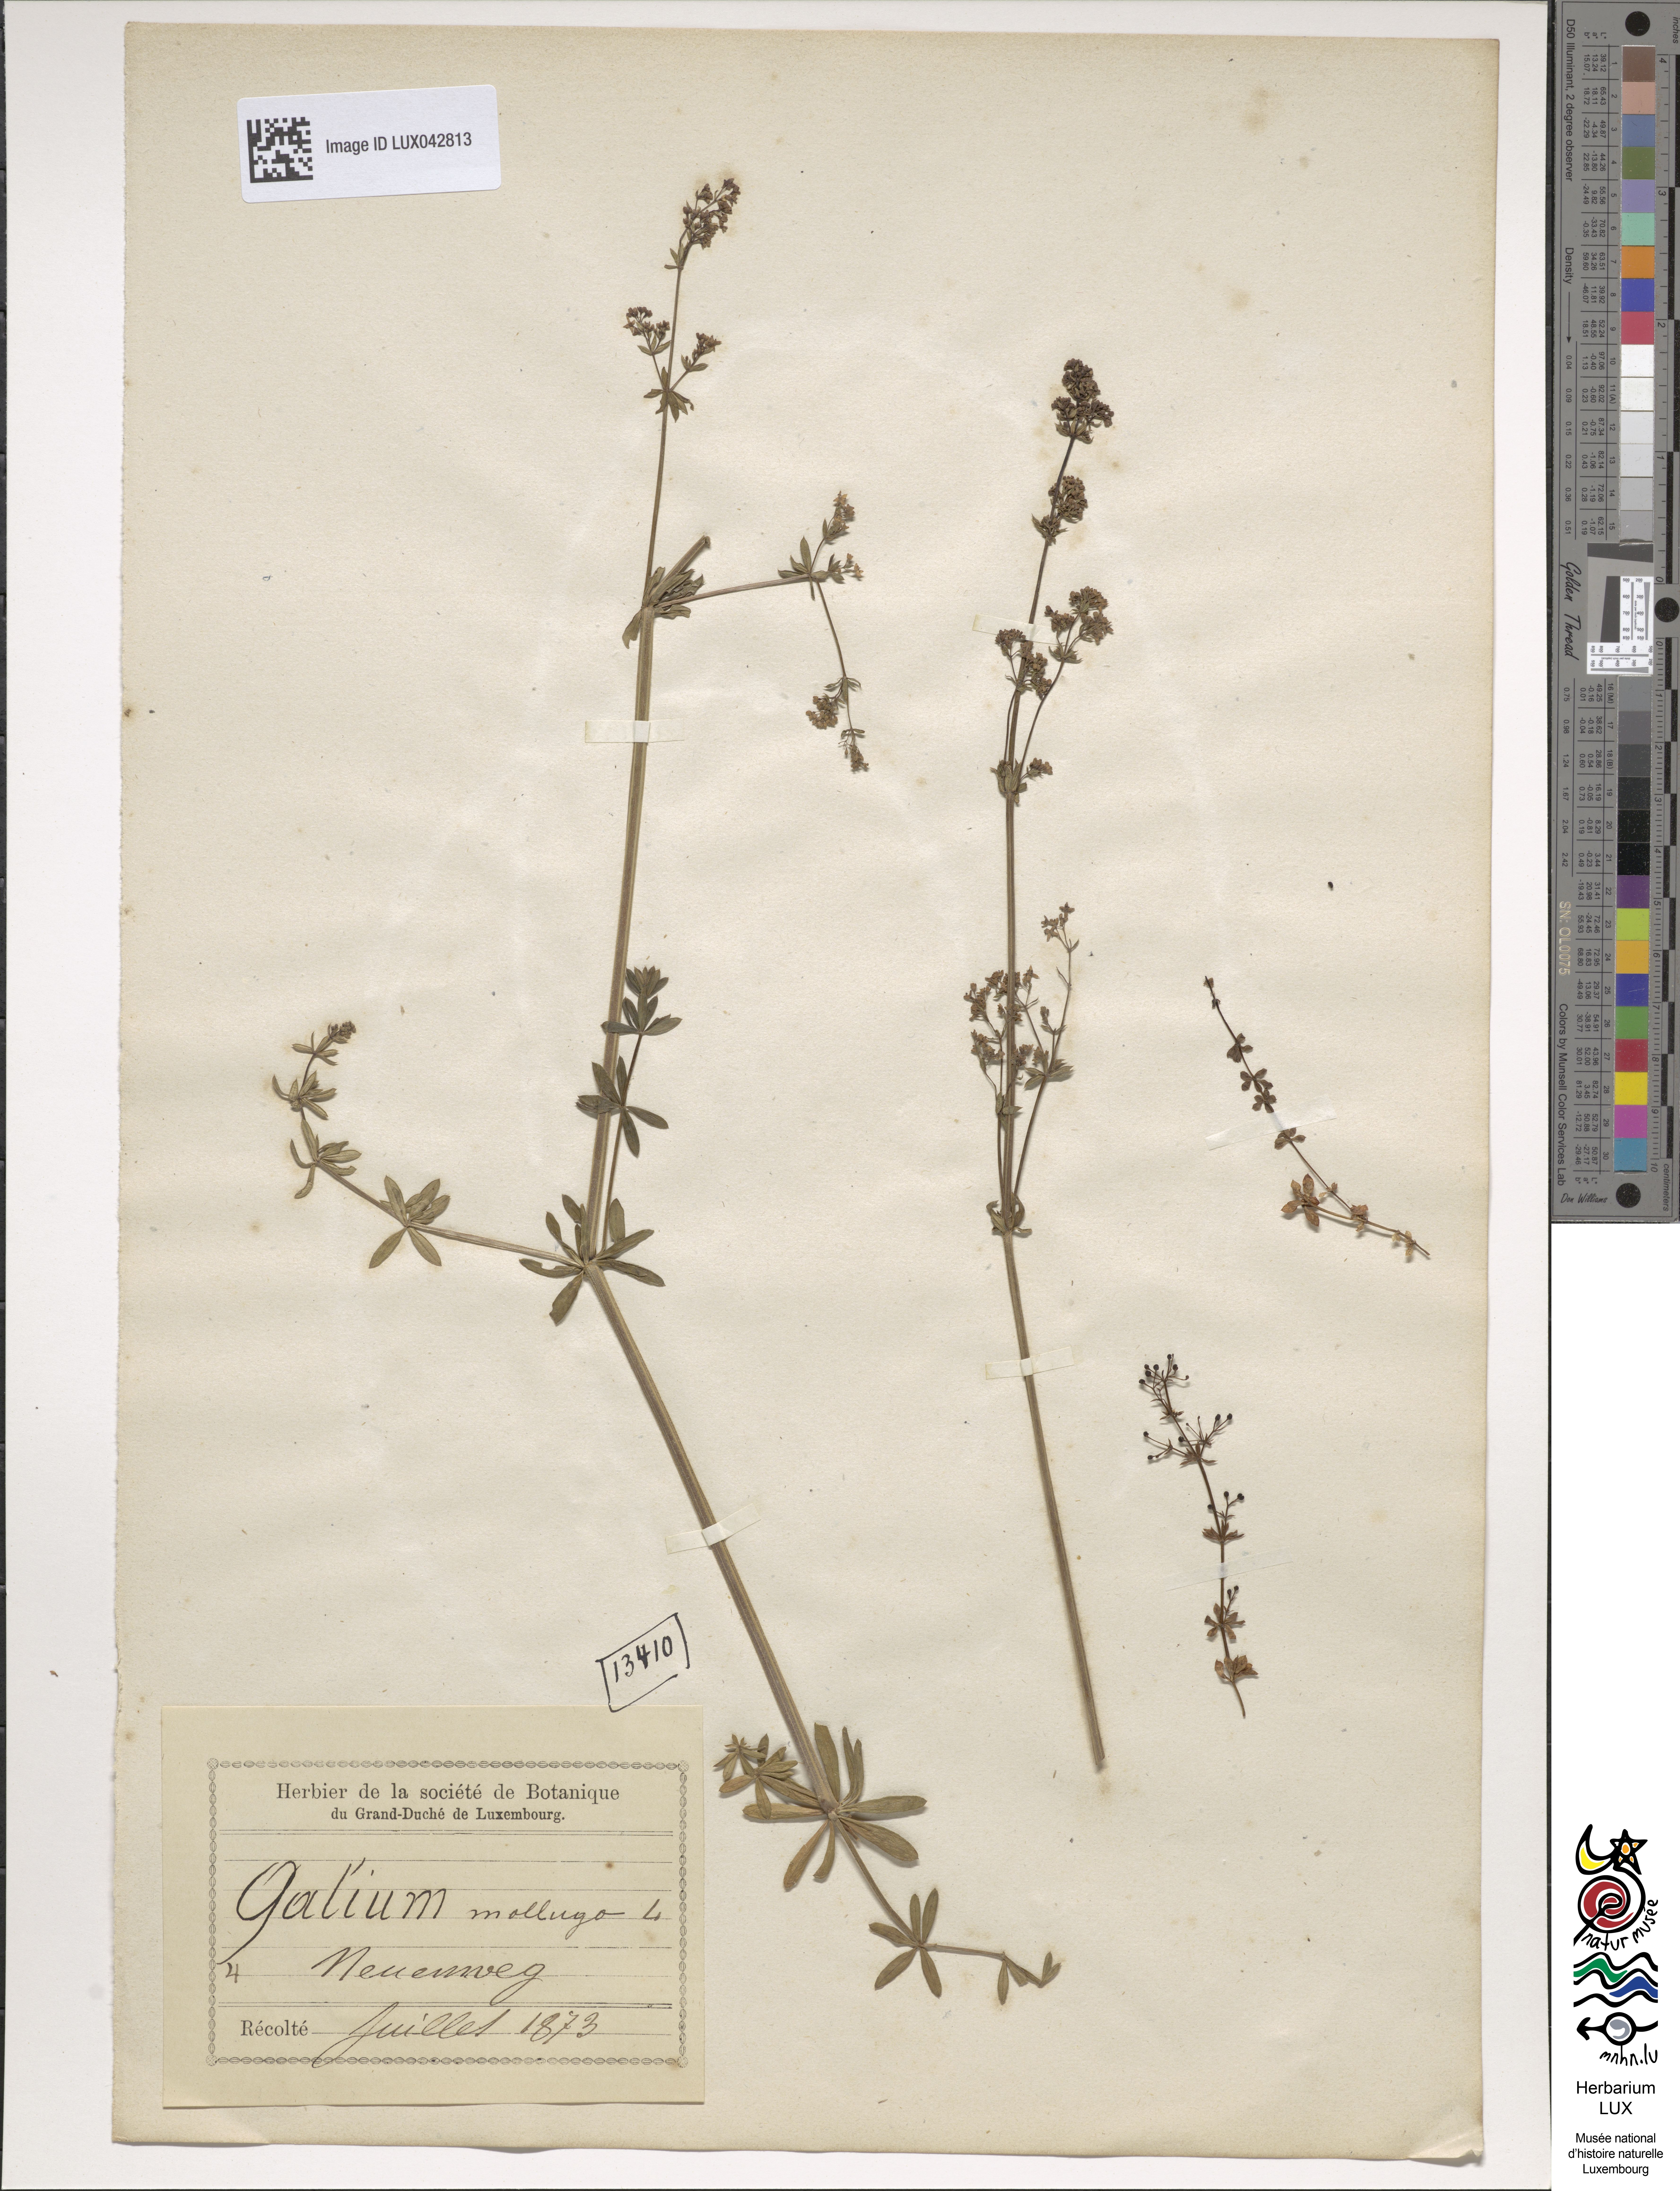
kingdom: Plantae
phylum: Tracheophyta
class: Magnoliopsida
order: Gentianales
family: Rubiaceae
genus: Galium
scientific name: Galium mollugo
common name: Hedge bedstraw
